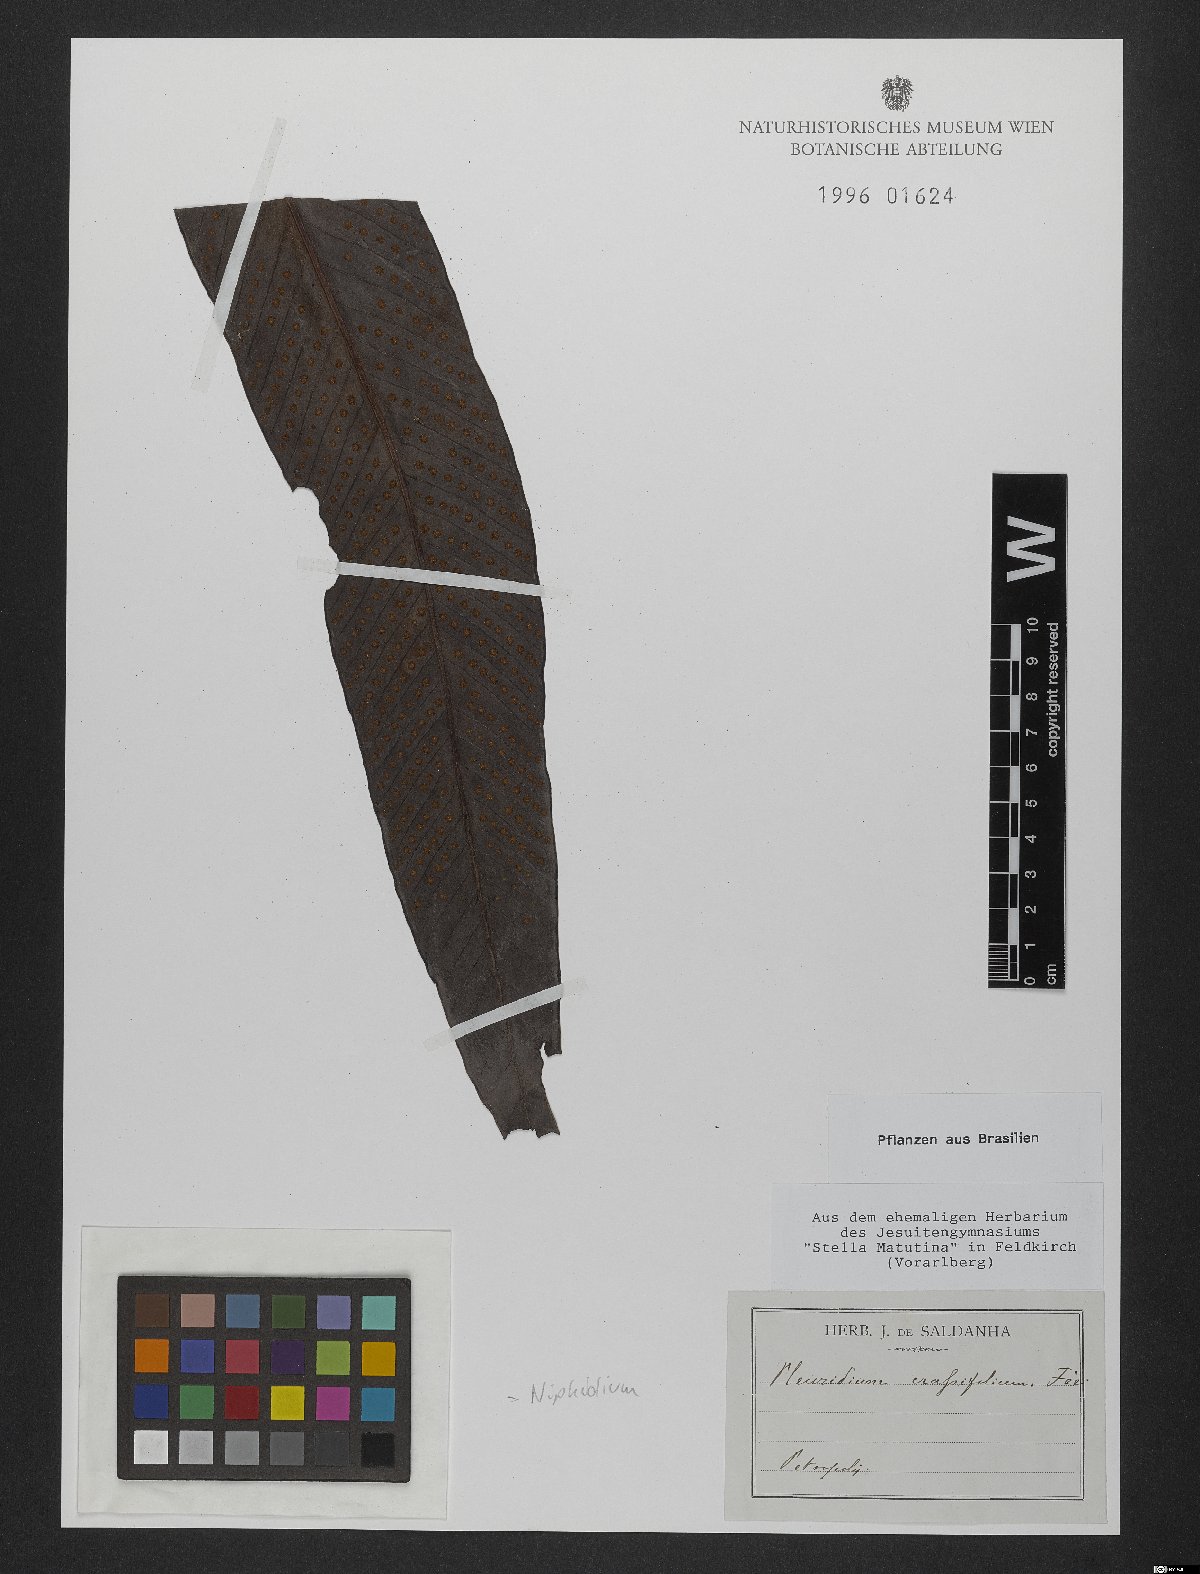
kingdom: Plantae
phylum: Tracheophyta
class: Polypodiopsida
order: Polypodiales
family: Polypodiaceae
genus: Niphidium
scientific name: Niphidium crassifolium
